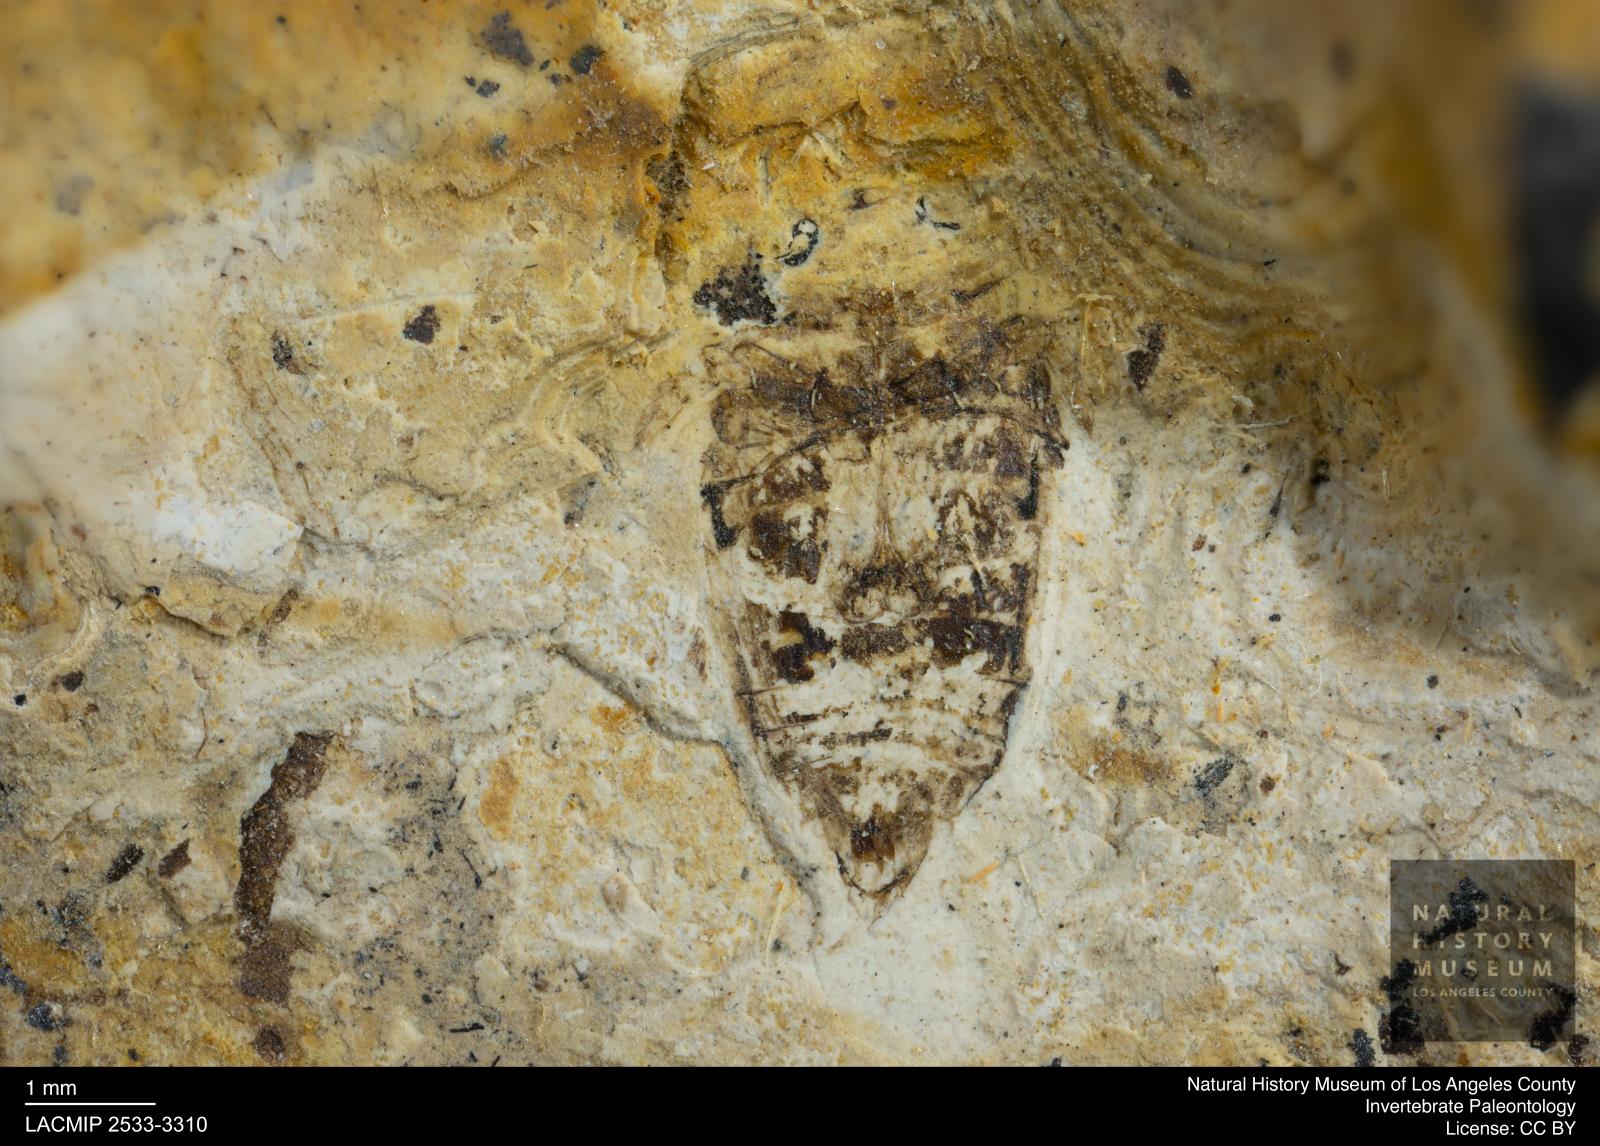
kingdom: Animalia
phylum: Arthropoda
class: Insecta
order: Coleoptera
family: Dytiscidae
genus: Laccophilus
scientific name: Laccophilus Palaeogyrinus strigatus
